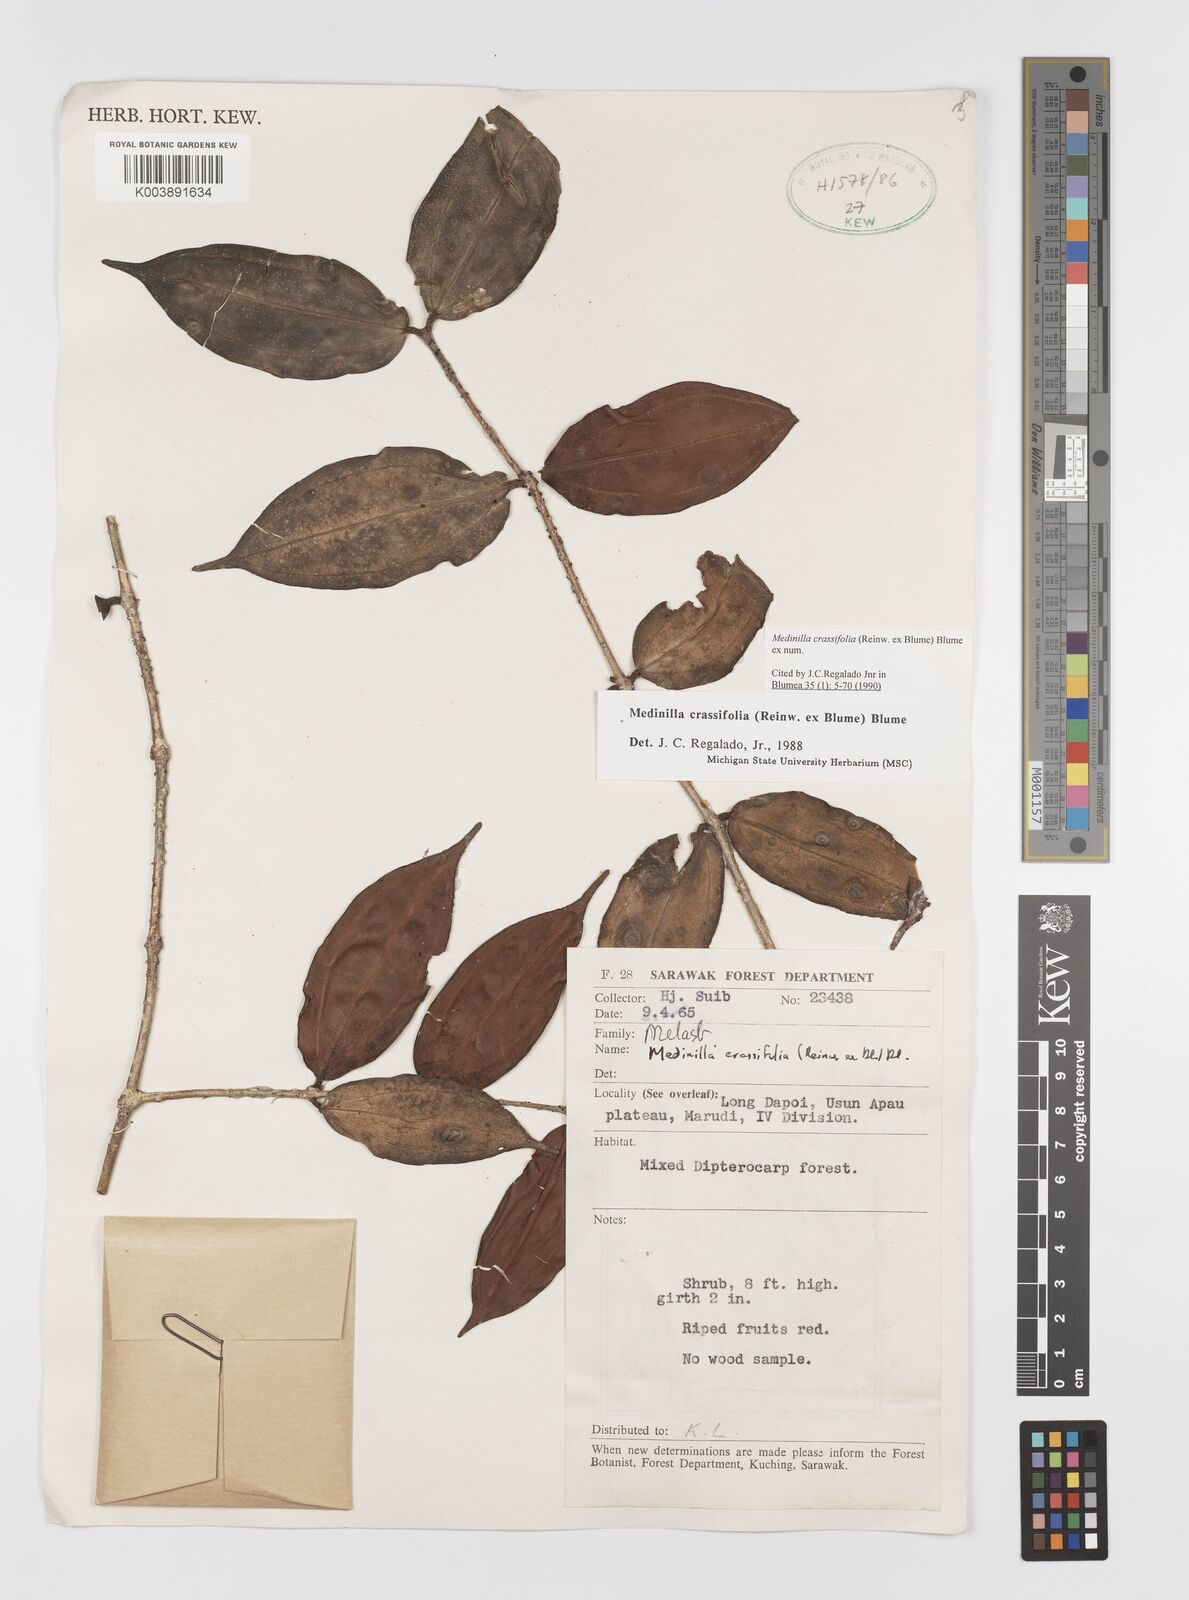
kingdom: Plantae
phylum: Tracheophyta
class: Magnoliopsida
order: Myrtales
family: Melastomataceae
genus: Medinilla
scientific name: Medinilla crassifolia
